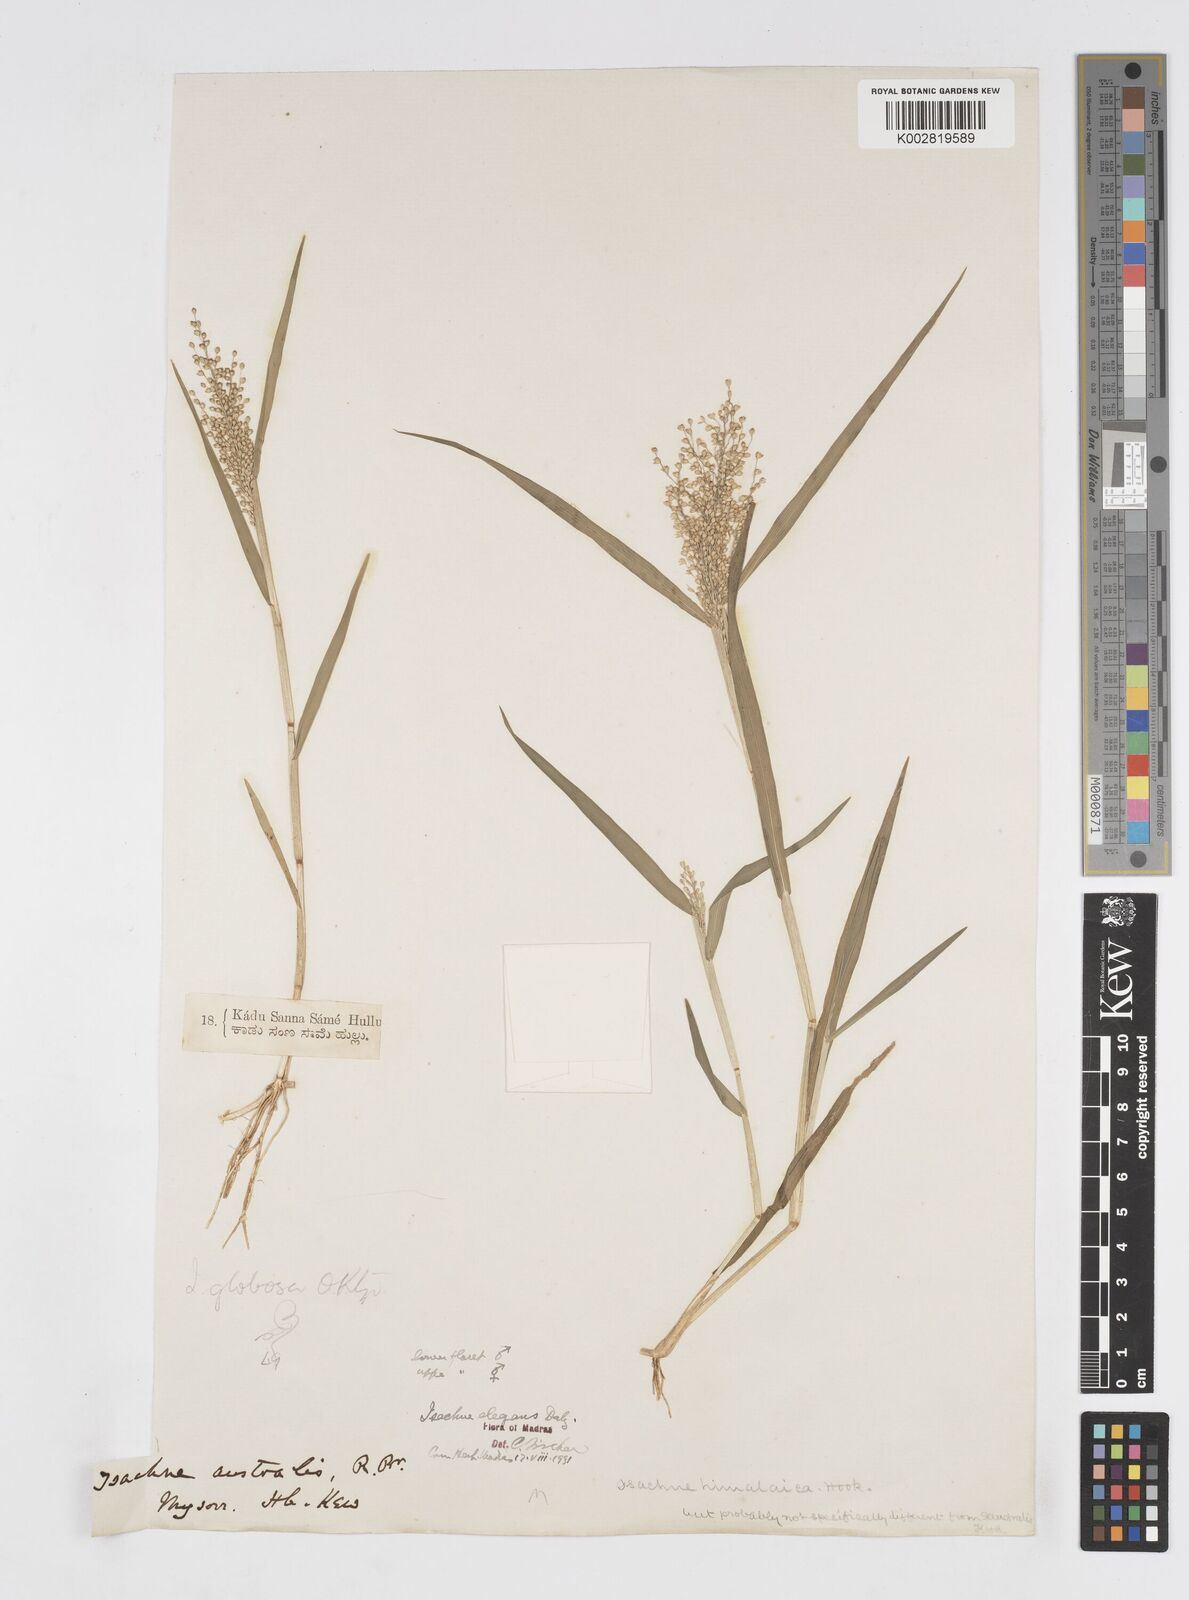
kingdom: Plantae
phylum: Tracheophyta
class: Liliopsida
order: Poales
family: Poaceae
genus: Isachne
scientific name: Isachne elegans
